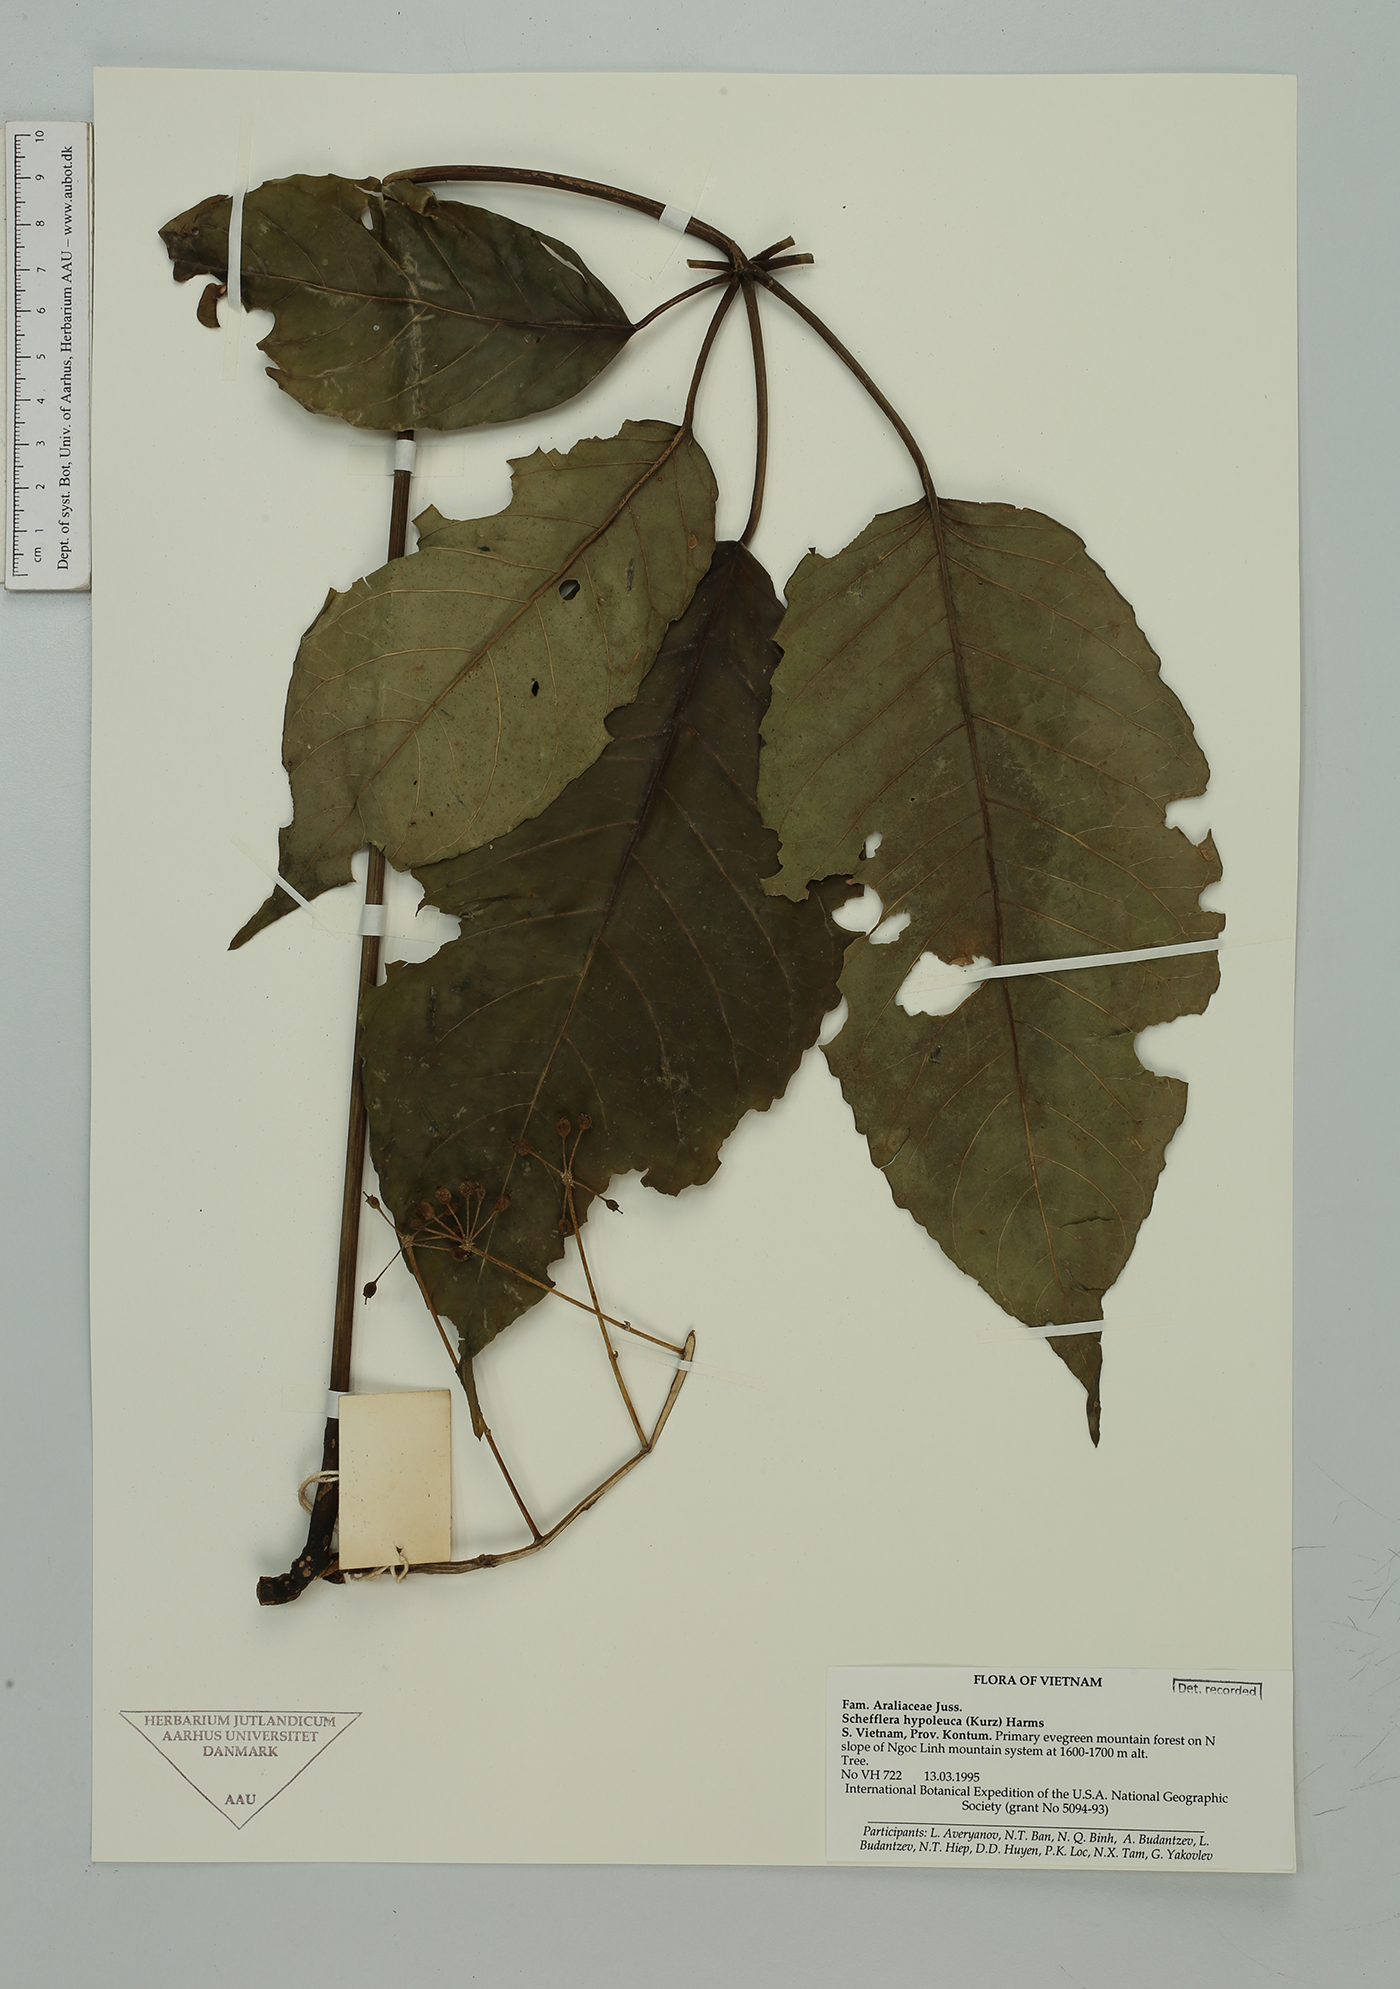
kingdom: Plantae
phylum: Tracheophyta
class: Magnoliopsida
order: Apiales
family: Araliaceae
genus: Heptapleurum
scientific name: Heptapleurum hypoleucum
